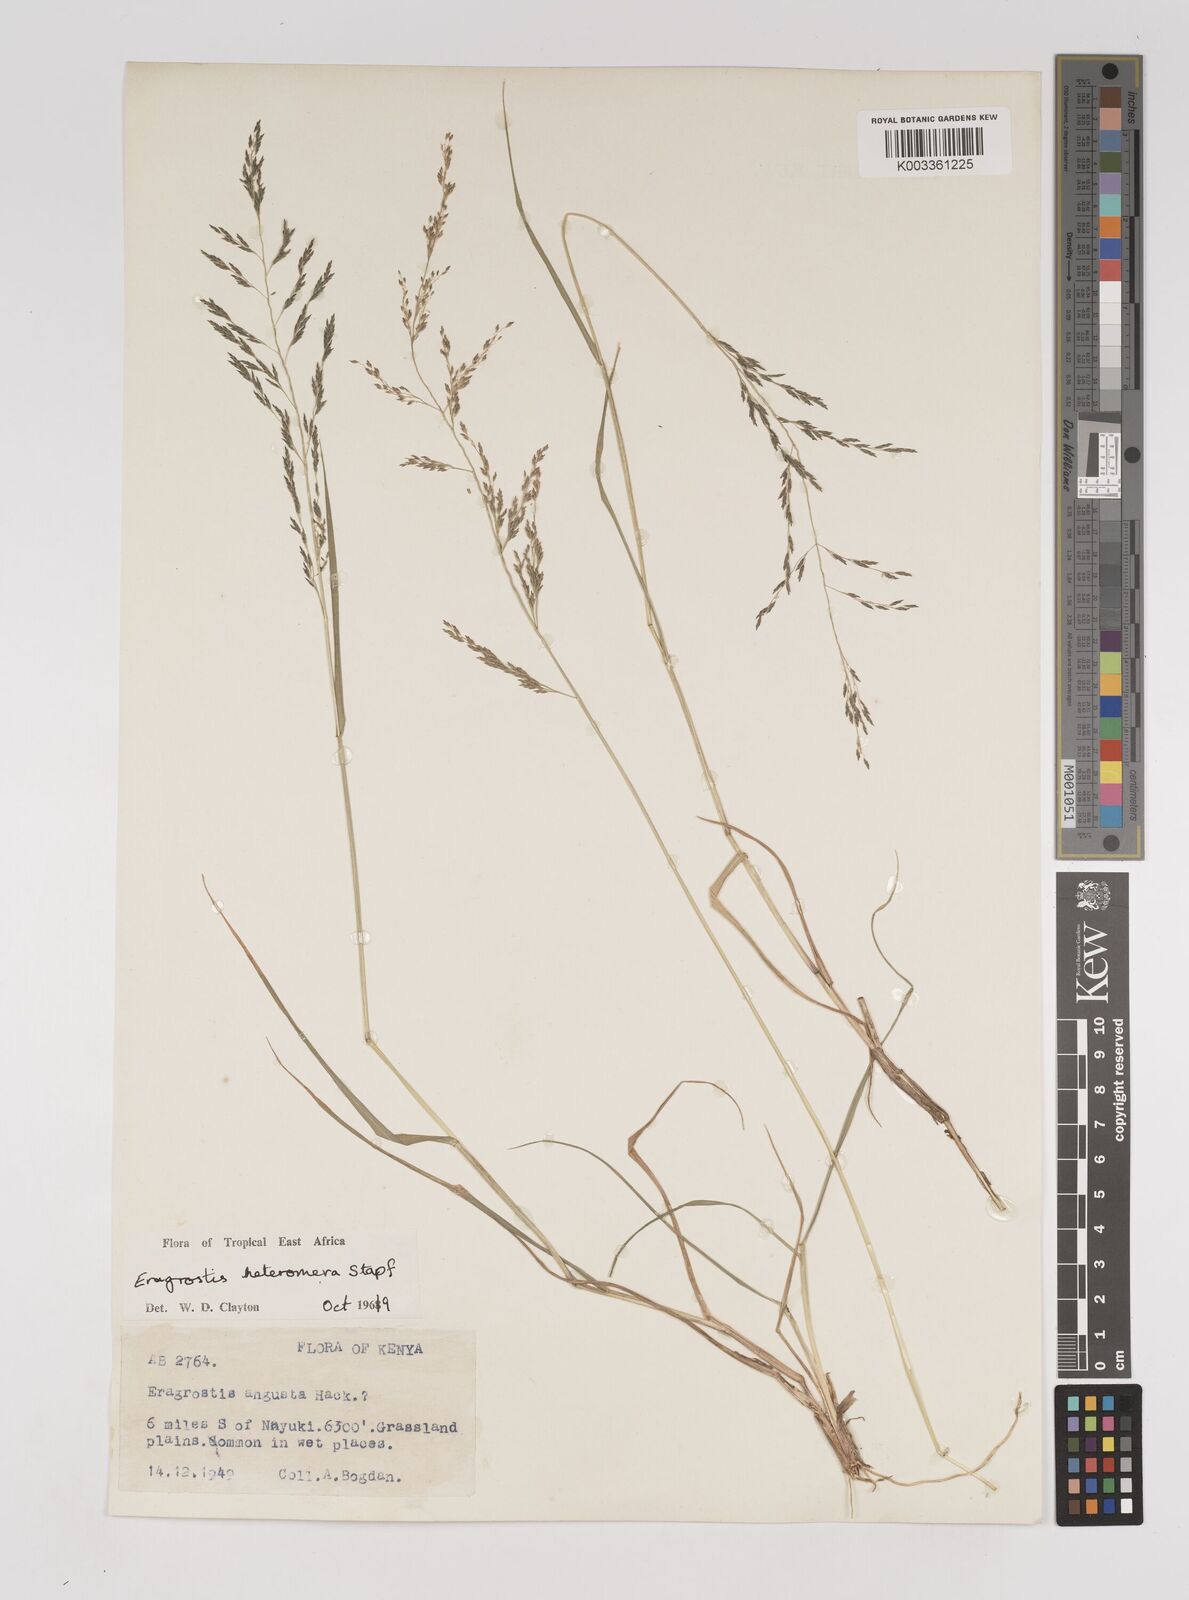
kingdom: Plantae
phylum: Tracheophyta
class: Liliopsida
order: Poales
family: Poaceae
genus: Eragrostis
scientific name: Eragrostis heteromera
